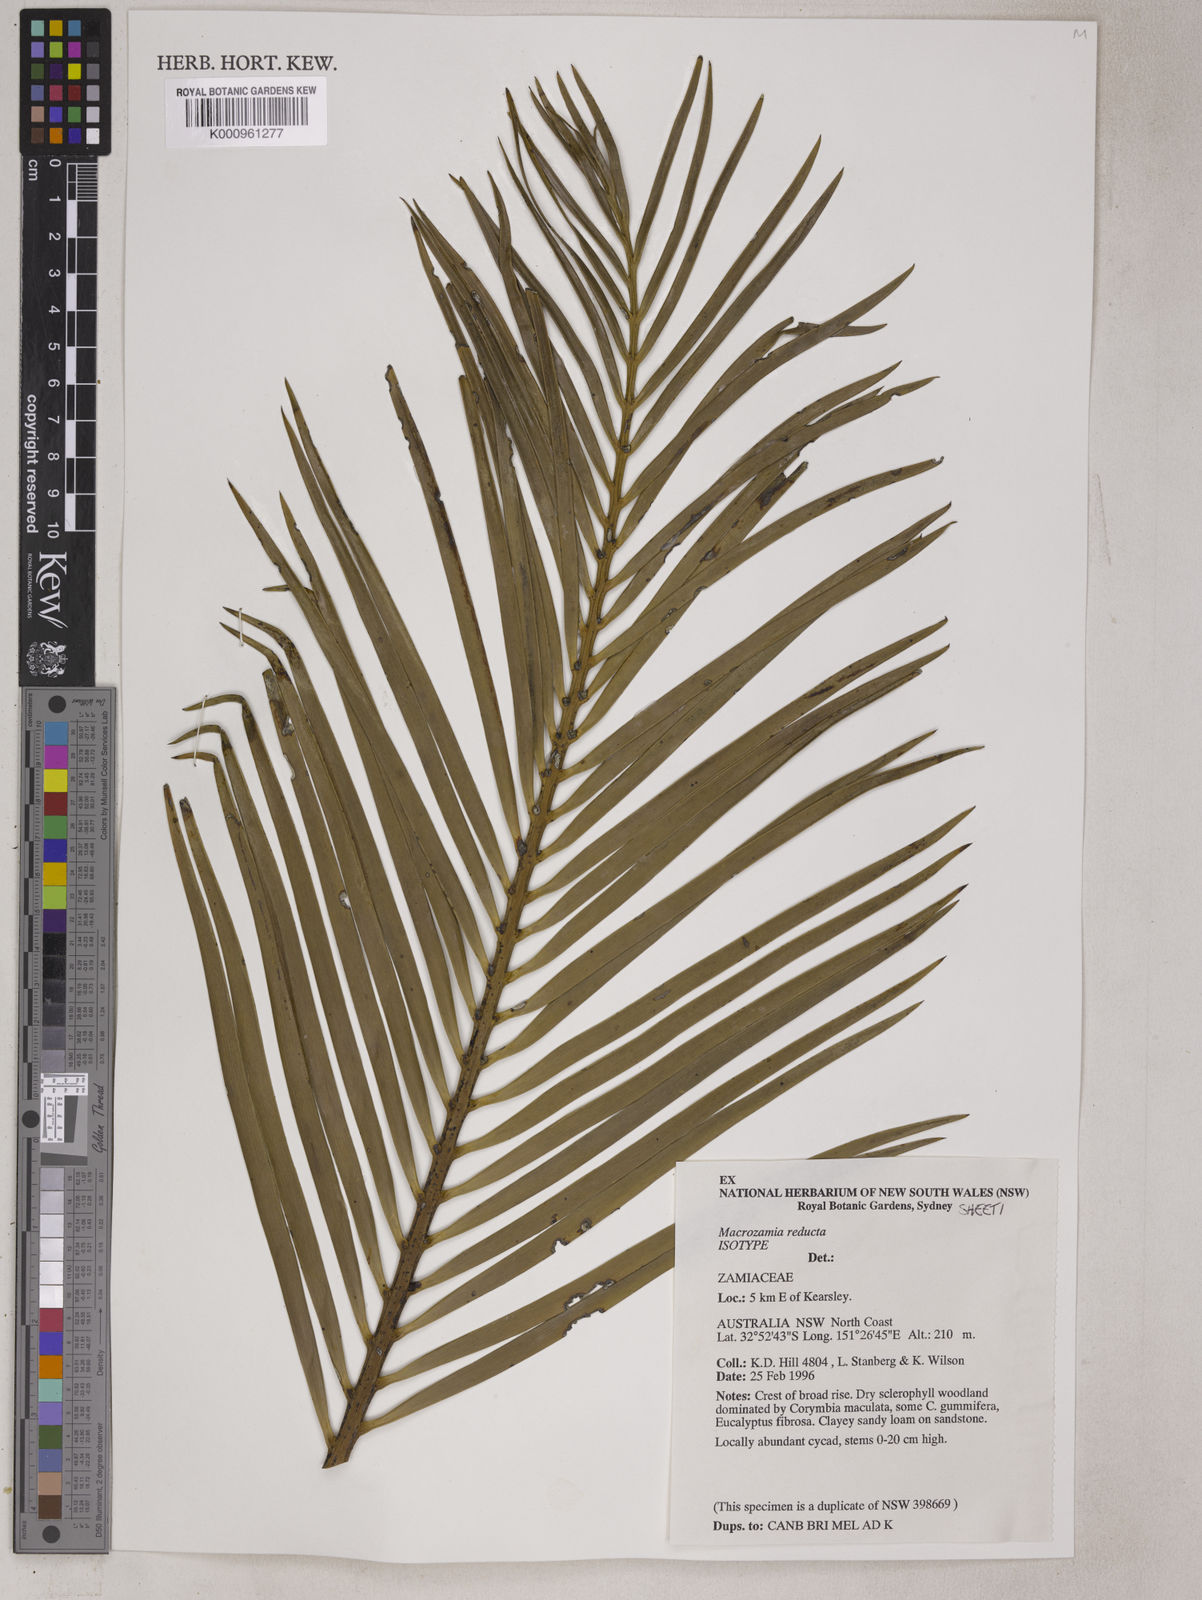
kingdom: Plantae
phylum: Tracheophyta
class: Cycadopsida
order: Cycadales
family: Zamiaceae
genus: Macrozamia
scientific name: Macrozamia reducta
